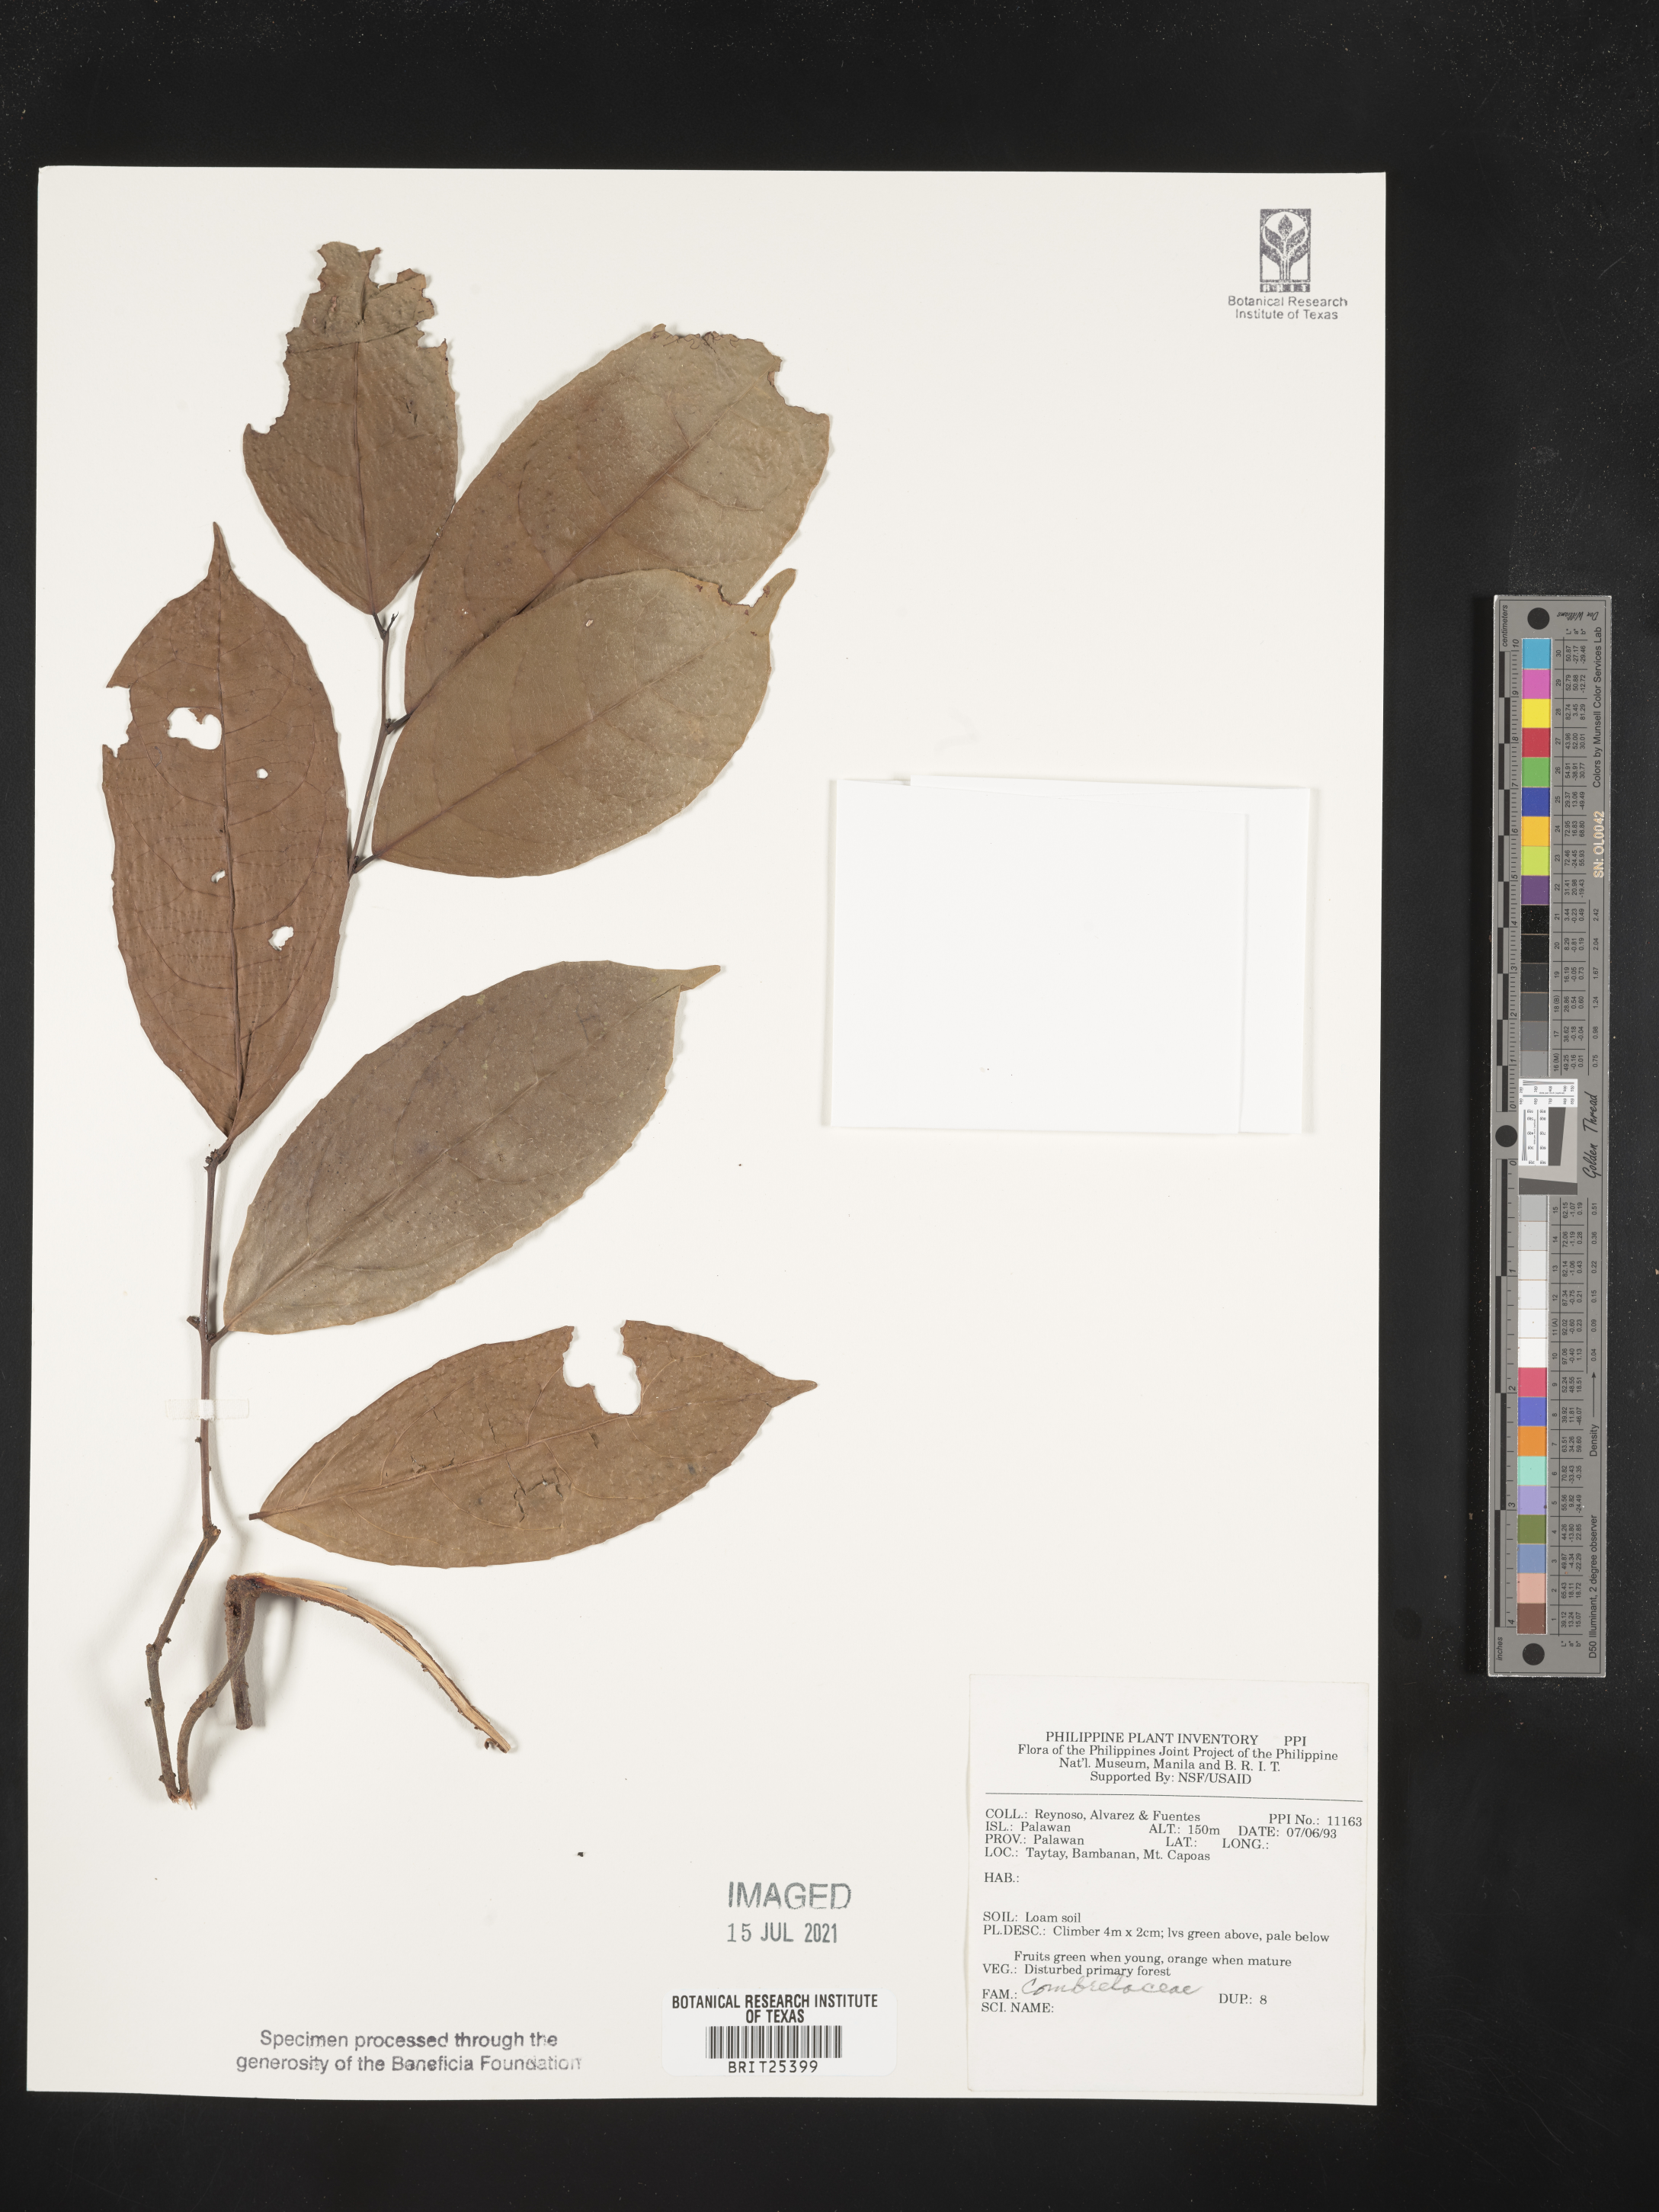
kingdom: Plantae
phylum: Tracheophyta
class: Magnoliopsida
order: Myrtales
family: Combretaceae
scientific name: Combretaceae
